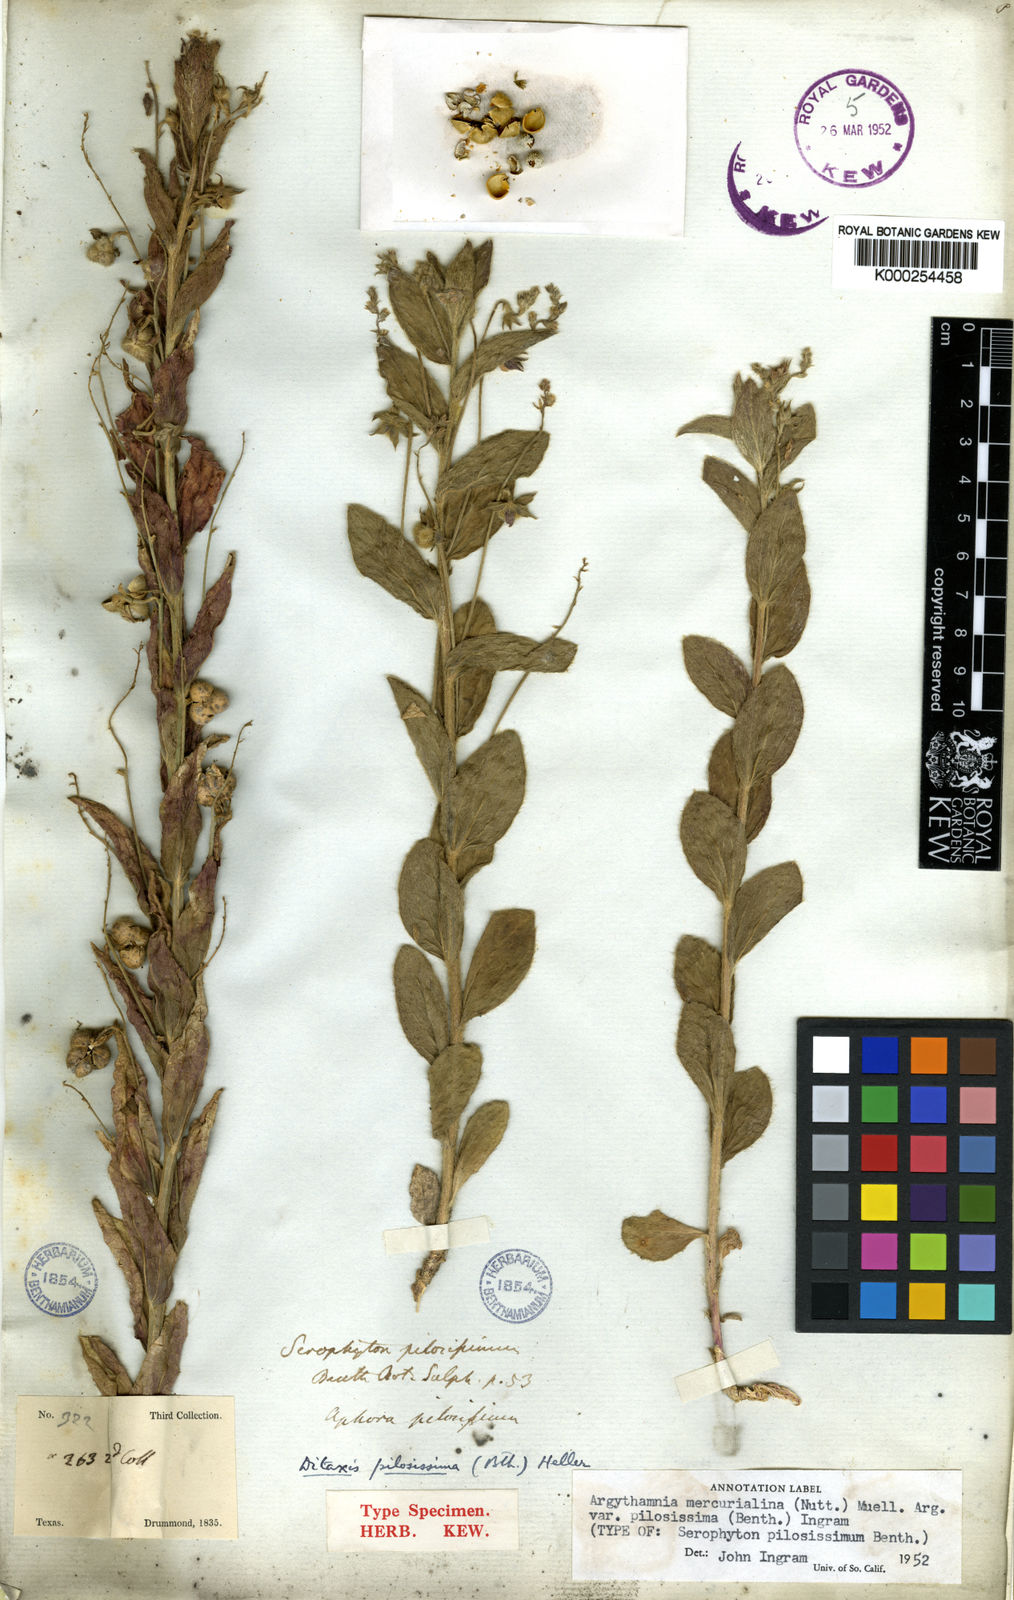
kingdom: Plantae
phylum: Tracheophyta
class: Magnoliopsida
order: Malpighiales
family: Euphorbiaceae
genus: Ditaxis
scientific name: Ditaxis pilosissima
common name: Tall silverbush
